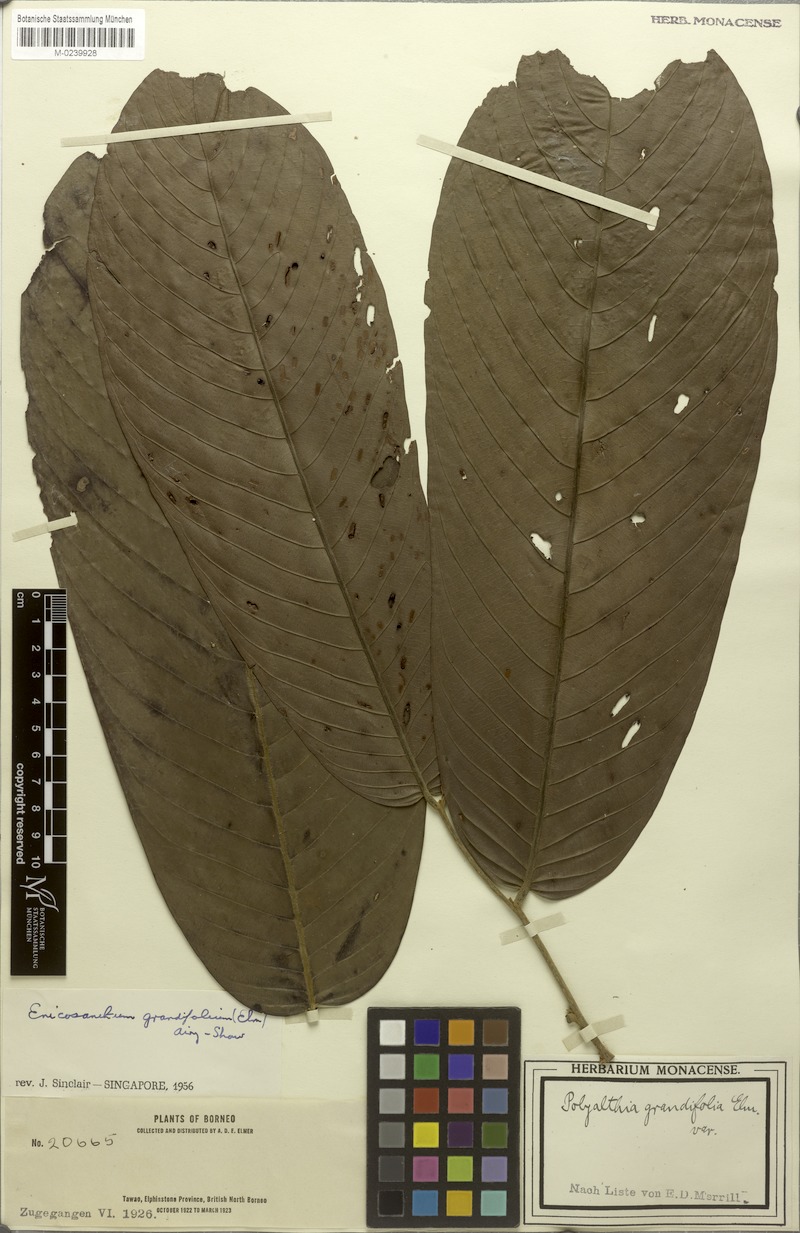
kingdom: Plantae
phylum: Tracheophyta
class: Magnoliopsida
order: Magnoliales
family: Annonaceae
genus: Enicosanthum
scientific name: Enicosanthum grandifolium
